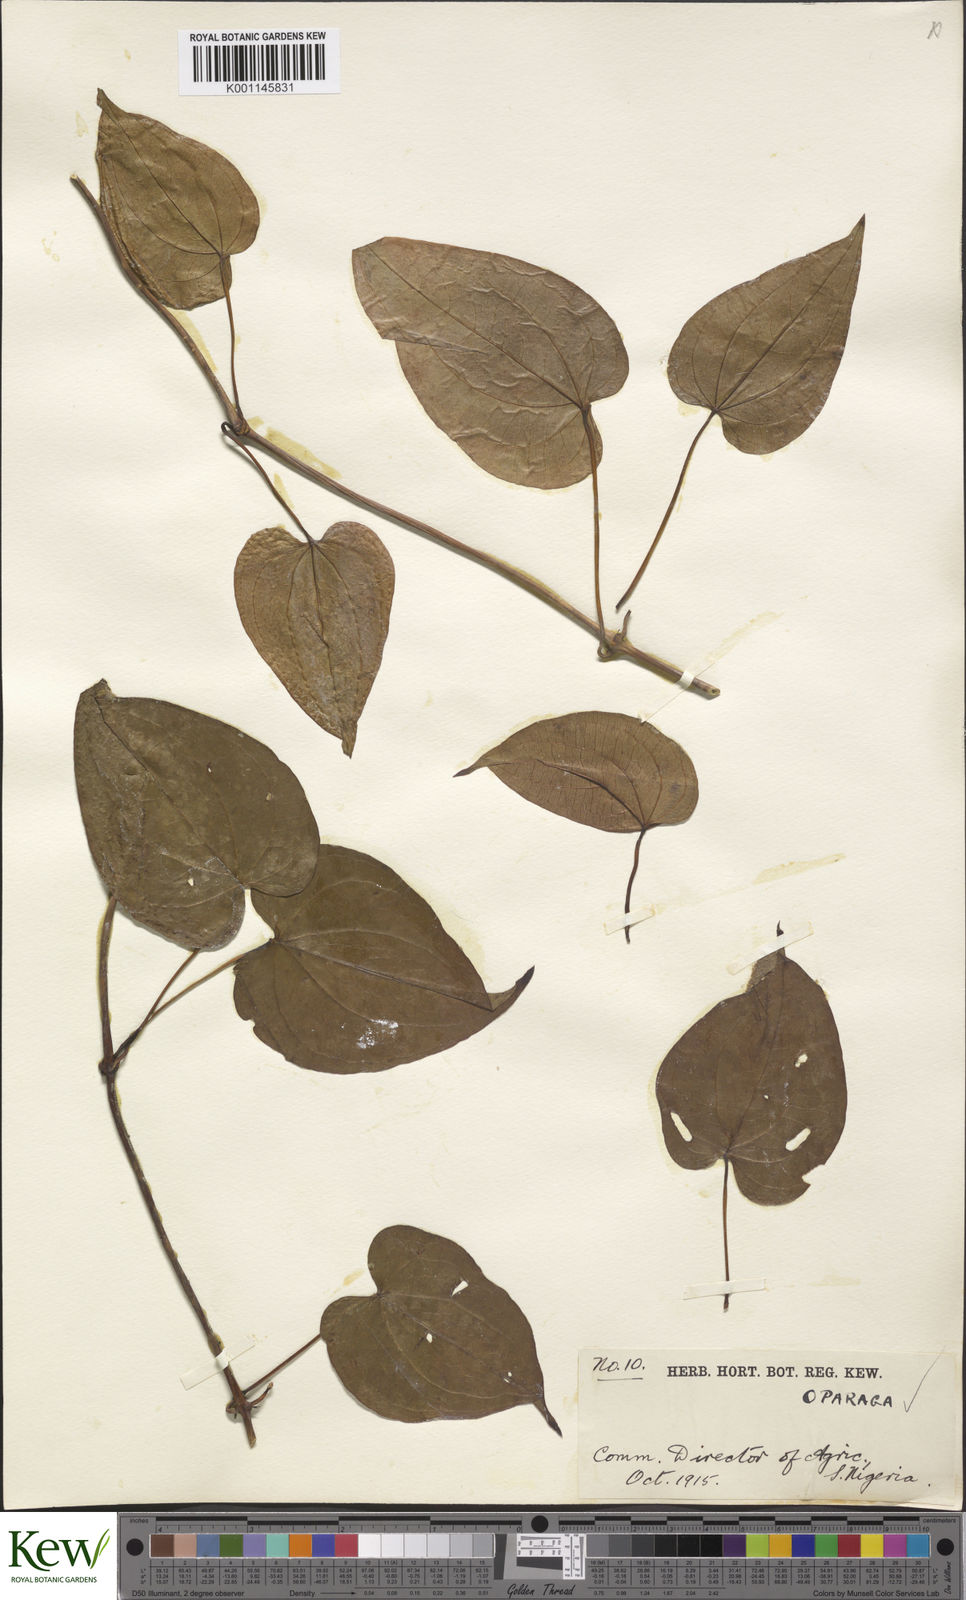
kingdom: Plantae
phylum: Tracheophyta
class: Liliopsida
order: Dioscoreales
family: Dioscoreaceae
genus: Dioscorea
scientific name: Dioscorea cayenensis
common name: Attoto yam
